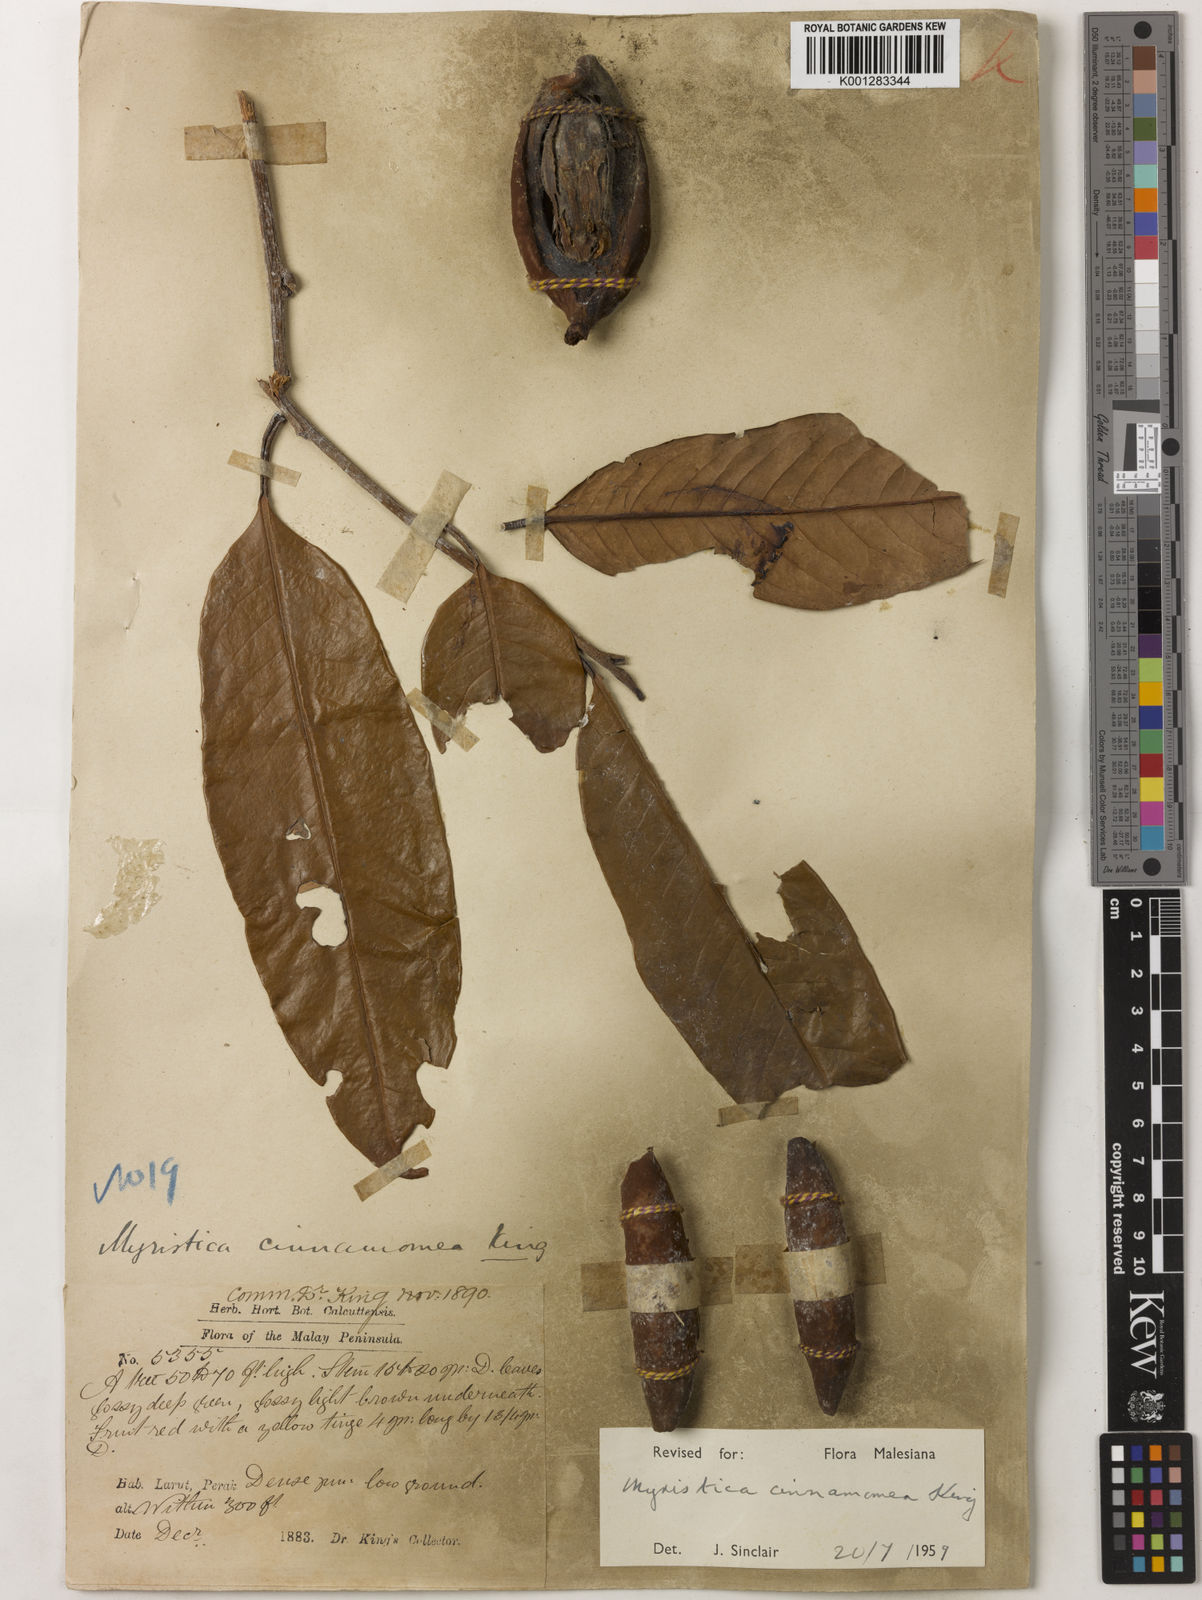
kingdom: Plantae
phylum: Tracheophyta
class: Magnoliopsida
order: Magnoliales
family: Myristicaceae
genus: Myristica
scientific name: Myristica cinnamomea
